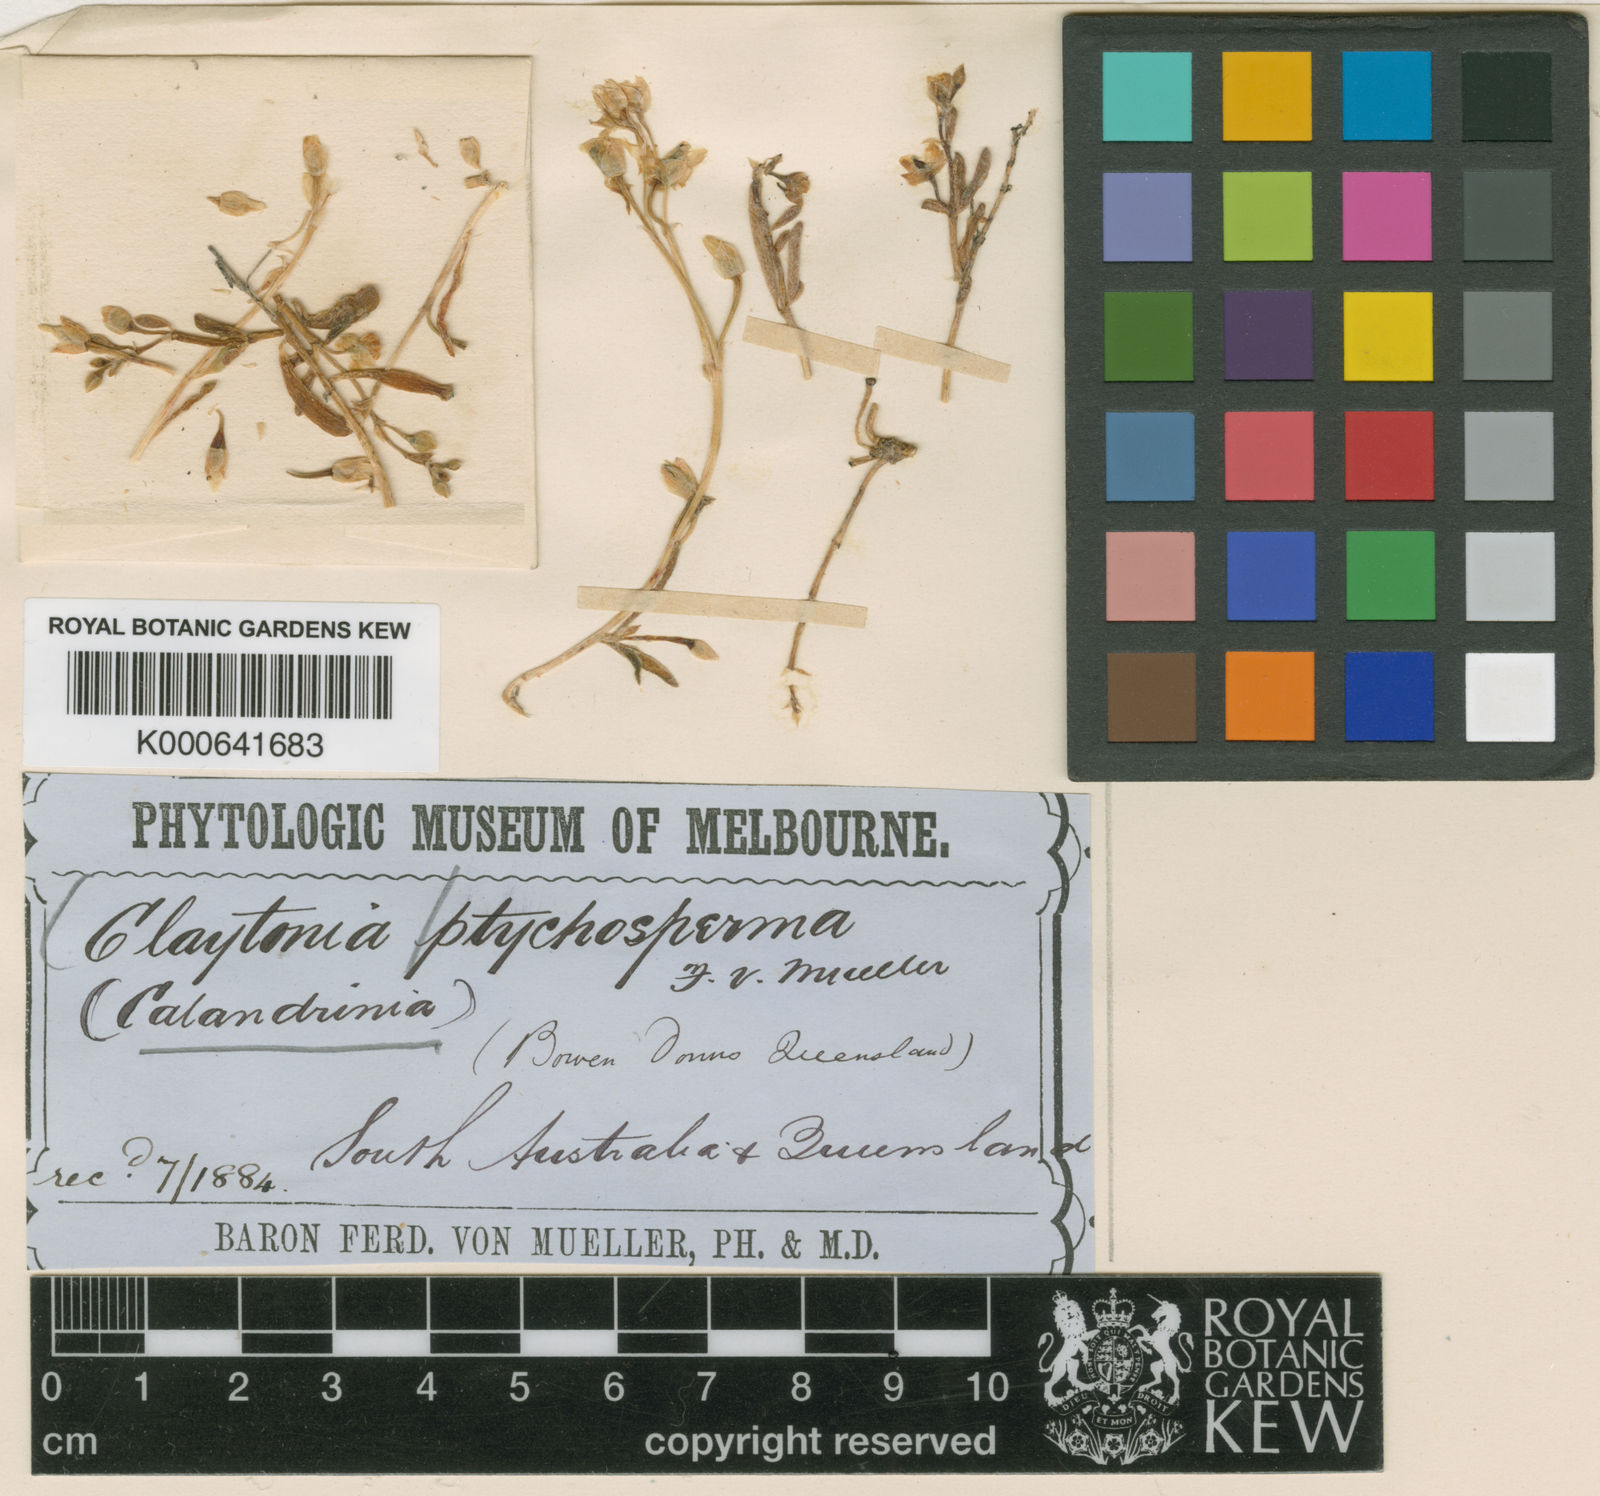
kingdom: Plantae
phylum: Tracheophyta
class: Magnoliopsida
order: Caryophyllales
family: Montiaceae
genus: Rumicastrum
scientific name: Rumicastrum ptychospermum
